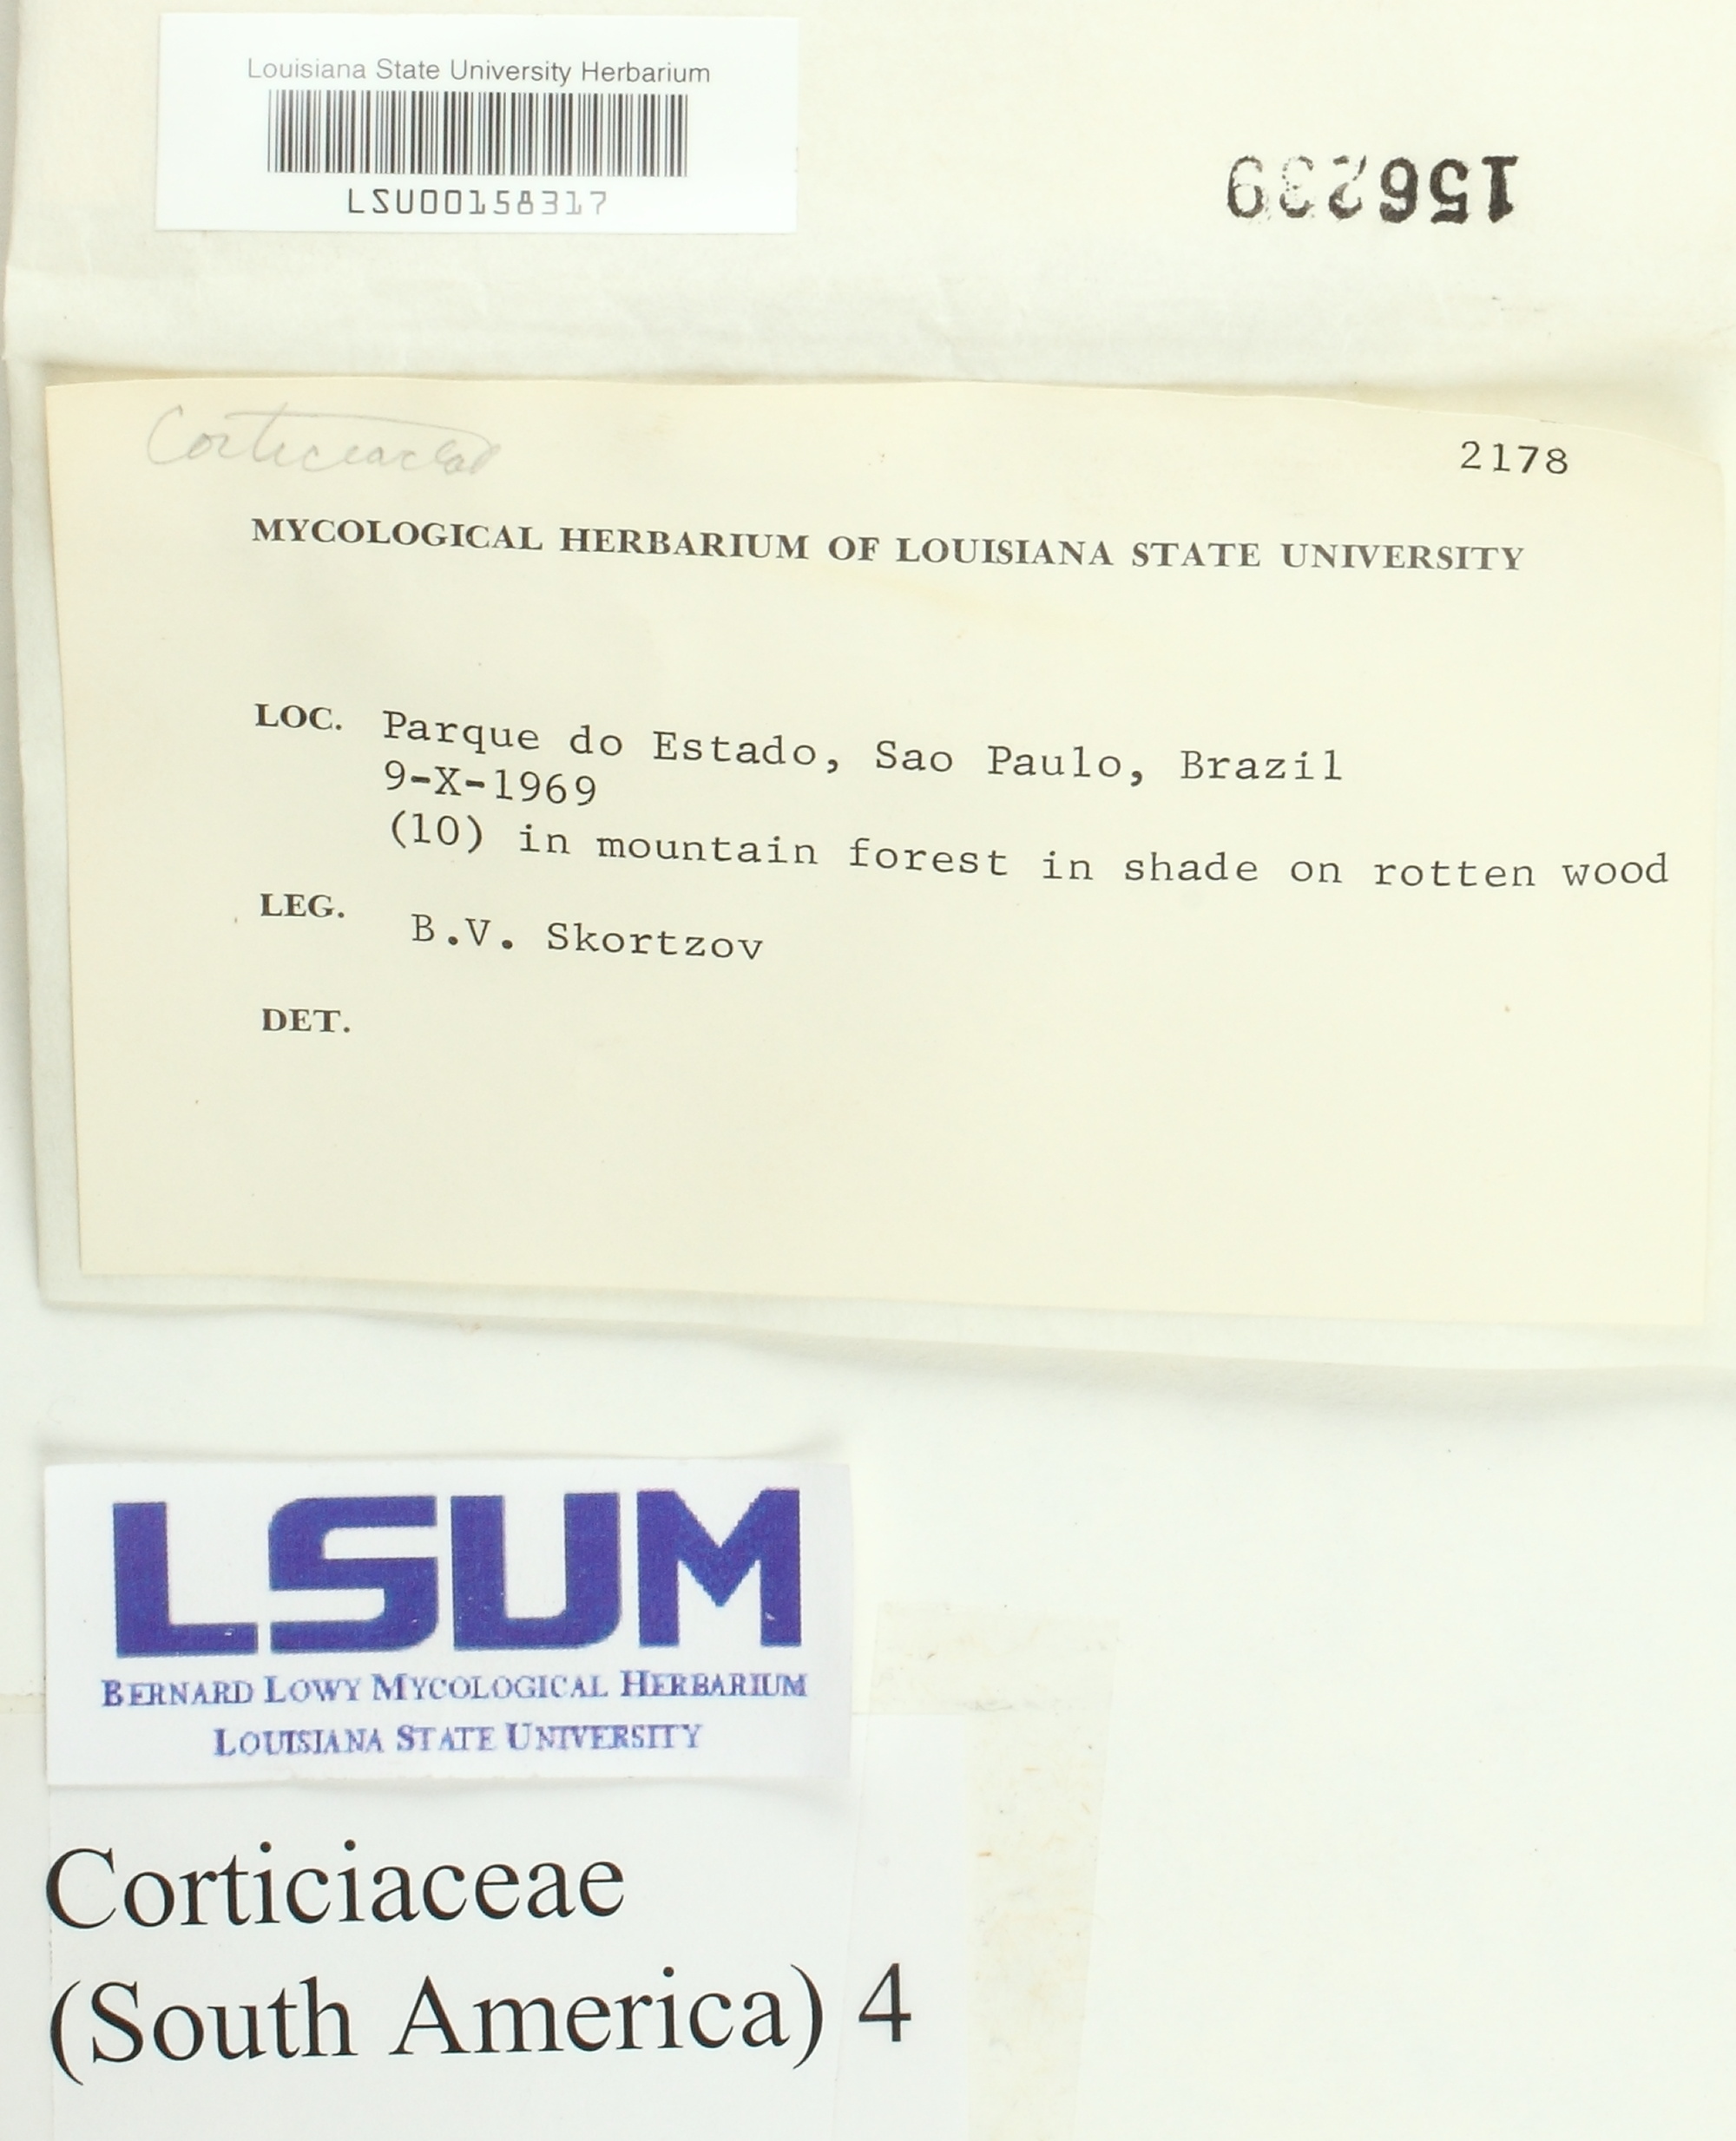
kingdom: Fungi
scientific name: Fungi
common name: Fungi
